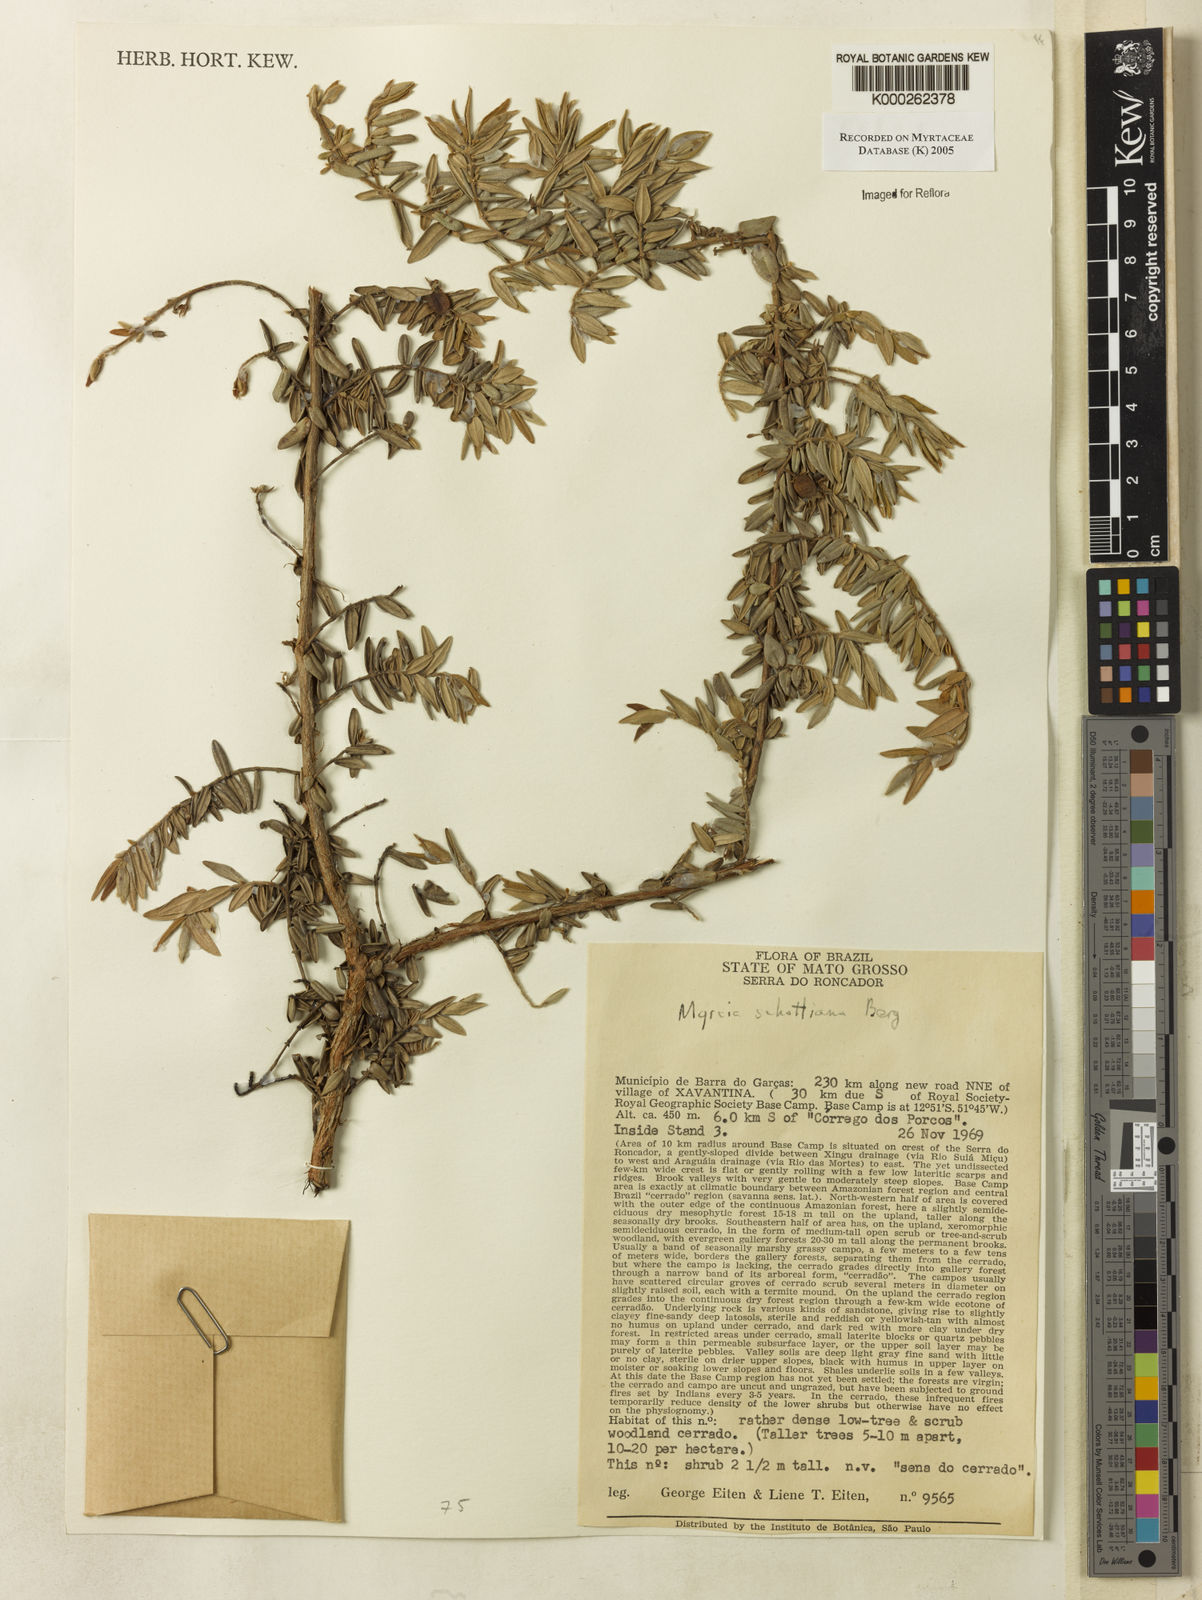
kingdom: Plantae
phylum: Tracheophyta
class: Magnoliopsida
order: Myrtales
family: Myrtaceae
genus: Myrcia
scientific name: Myrcia schottiana
